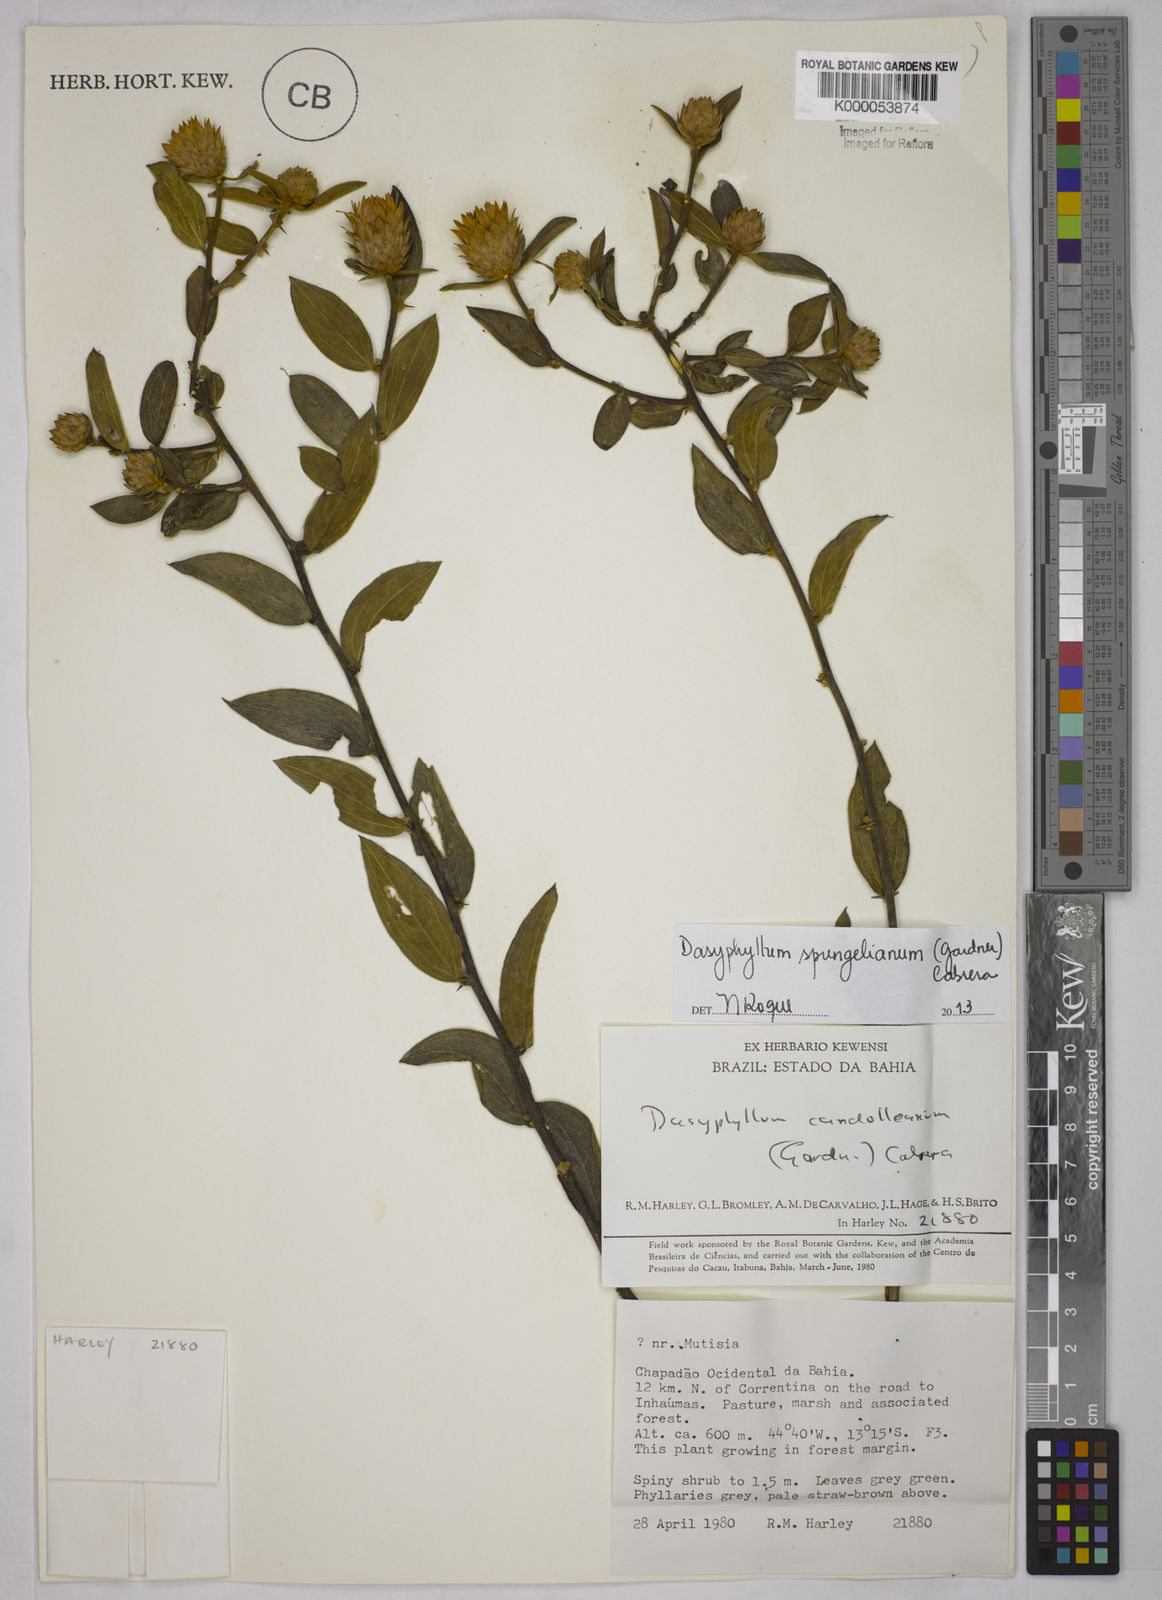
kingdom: Plantae
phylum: Tracheophyta
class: Magnoliopsida
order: Asterales
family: Asteraceae
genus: Dasyphyllum
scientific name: Dasyphyllum candolleanum
